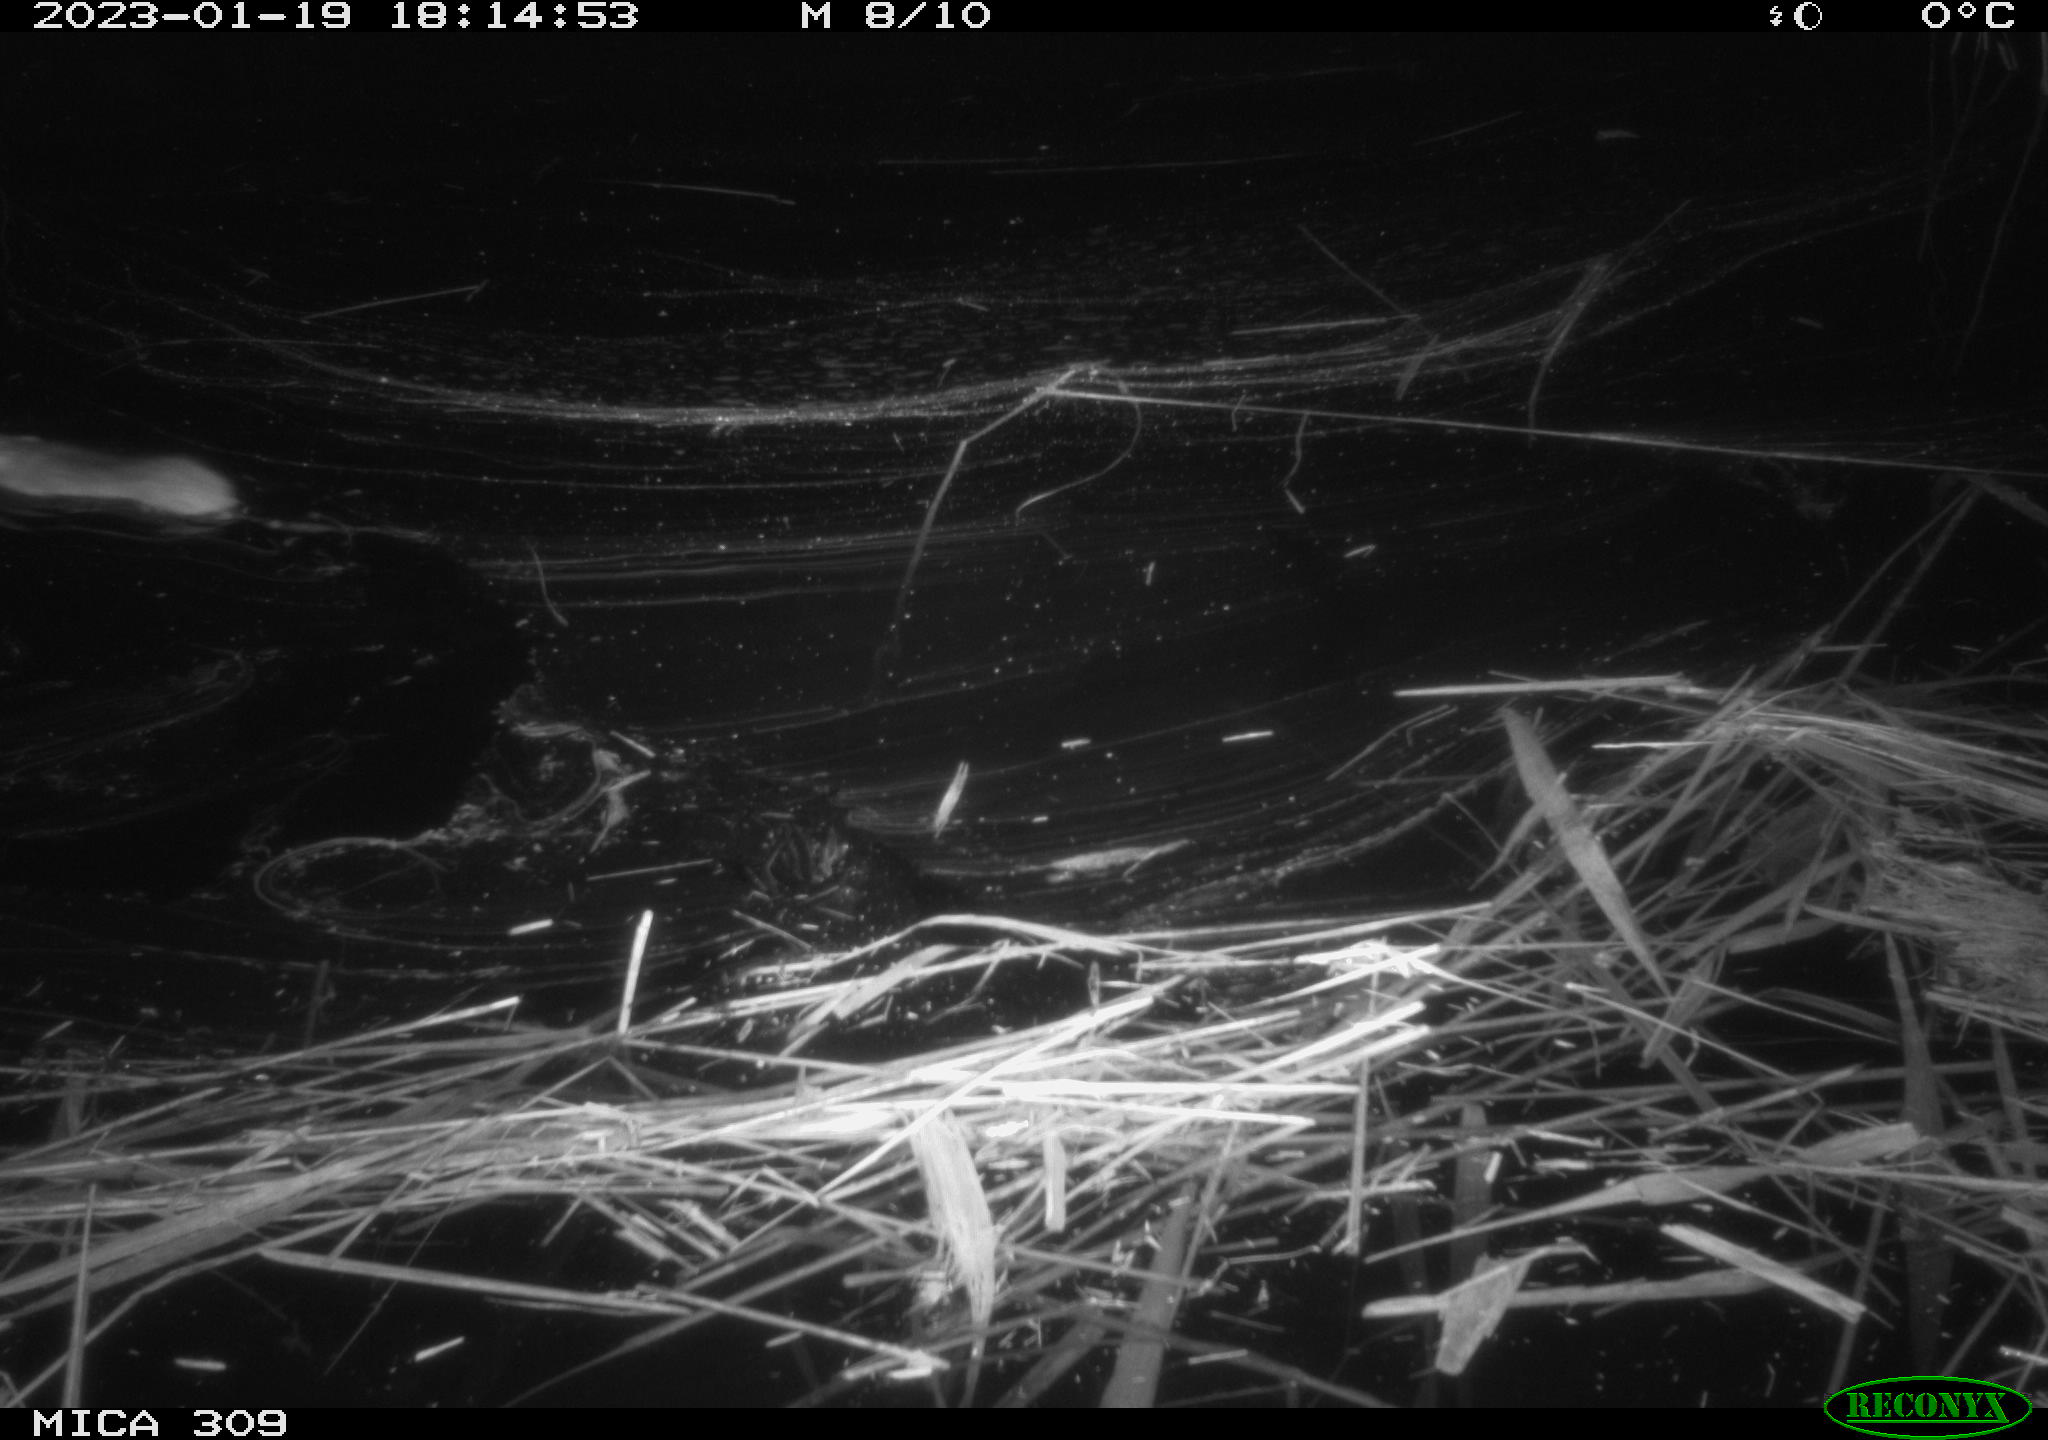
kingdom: Animalia
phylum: Chordata
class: Mammalia
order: Rodentia
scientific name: Rodentia
